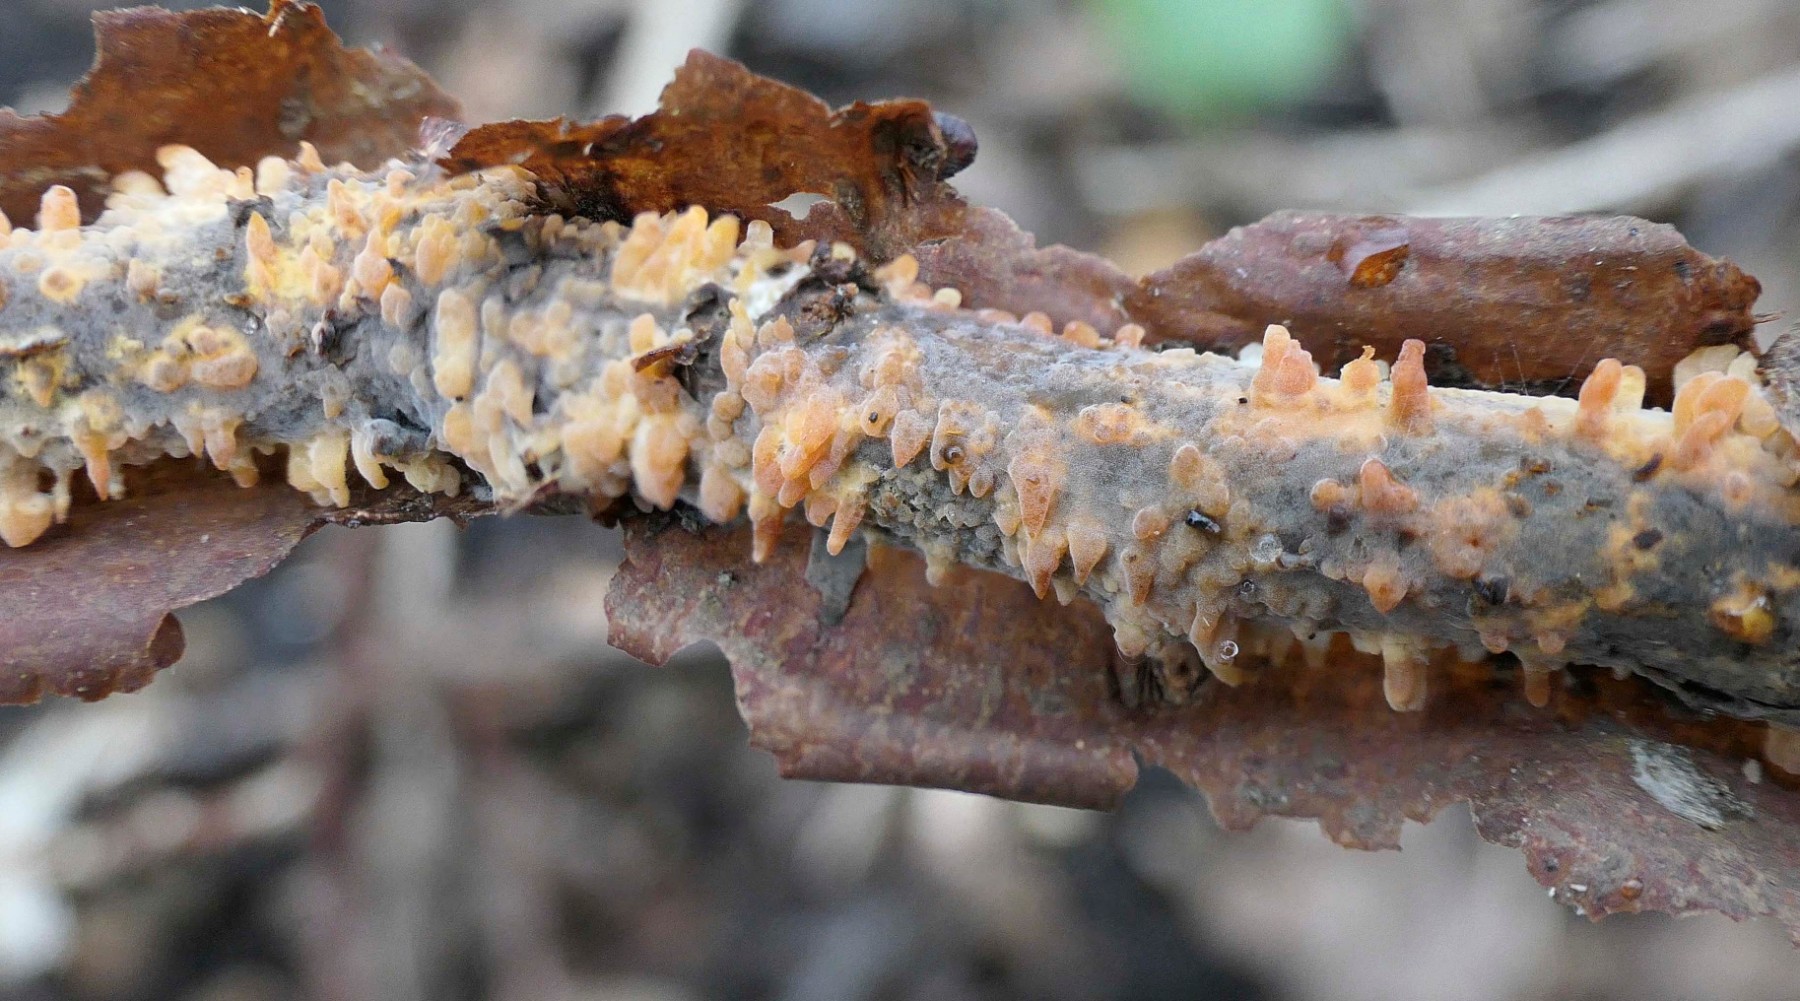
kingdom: Fungi
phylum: Basidiomycota
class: Agaricomycetes
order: Russulales
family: Peniophoraceae
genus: Peniophora
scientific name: Peniophora laeta
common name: tandet voksskind
